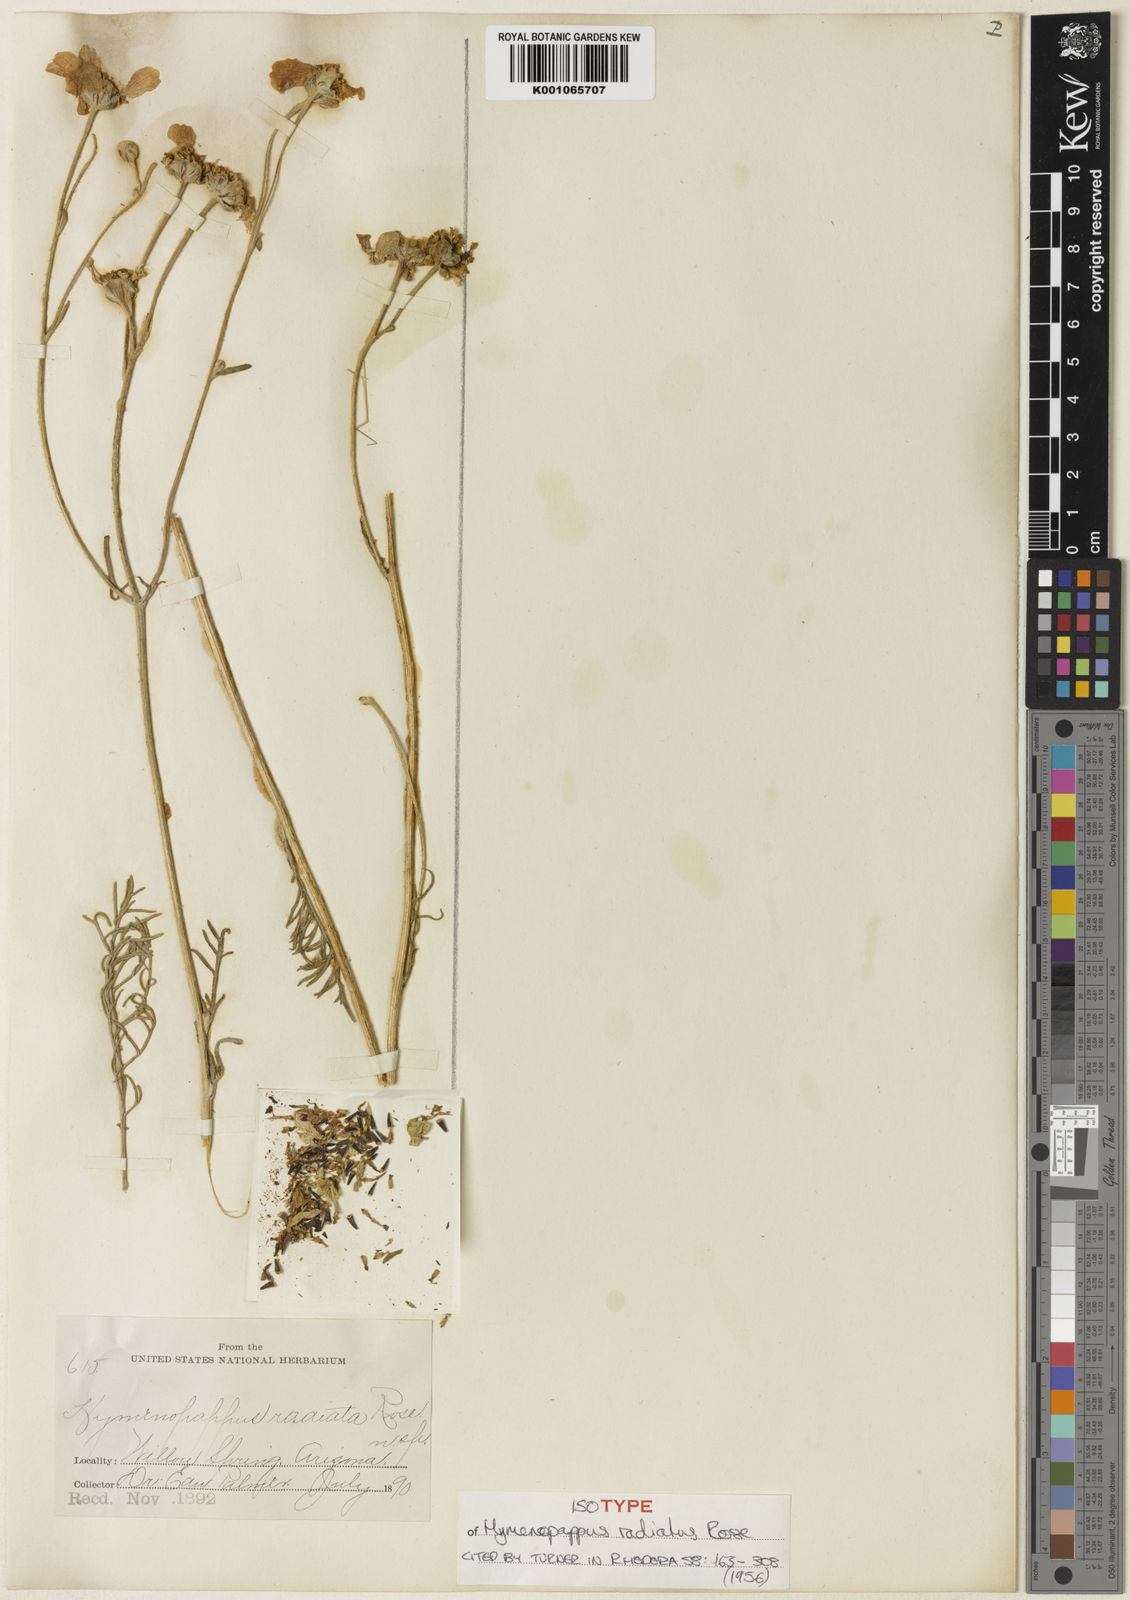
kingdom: Plantae
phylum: Tracheophyta
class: Magnoliopsida
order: Asterales
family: Asteraceae
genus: Hymenopappus
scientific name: Hymenopappus radiatus
